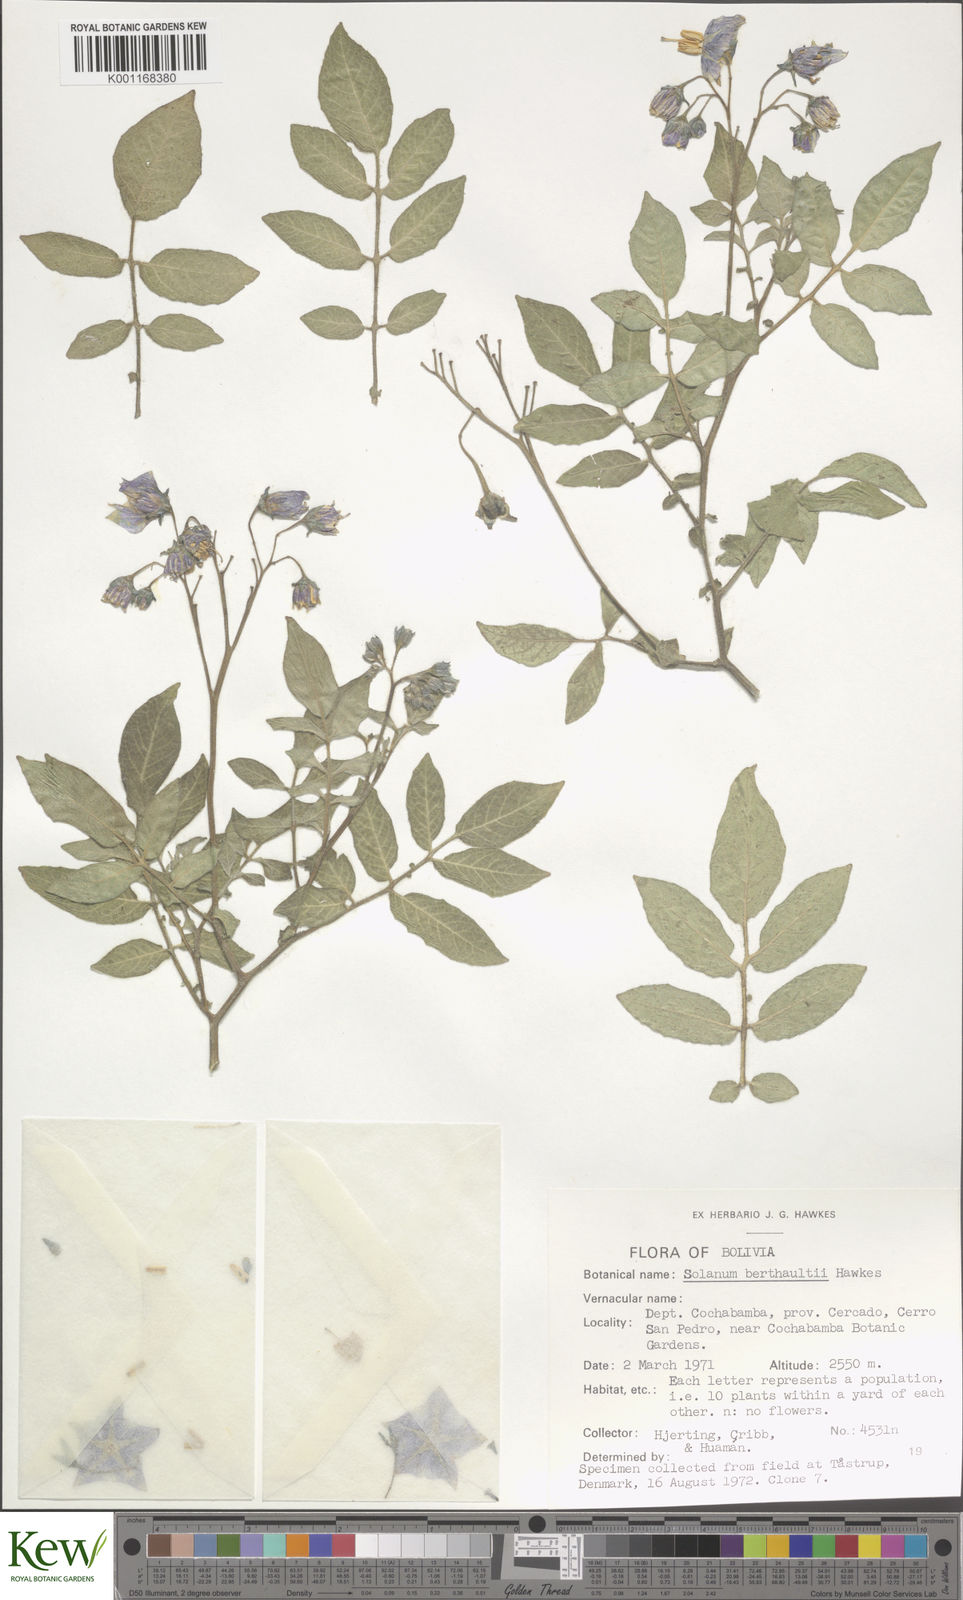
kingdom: Plantae
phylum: Tracheophyta
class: Magnoliopsida
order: Solanales
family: Solanaceae
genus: Solanum
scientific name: Solanum berthaultii
